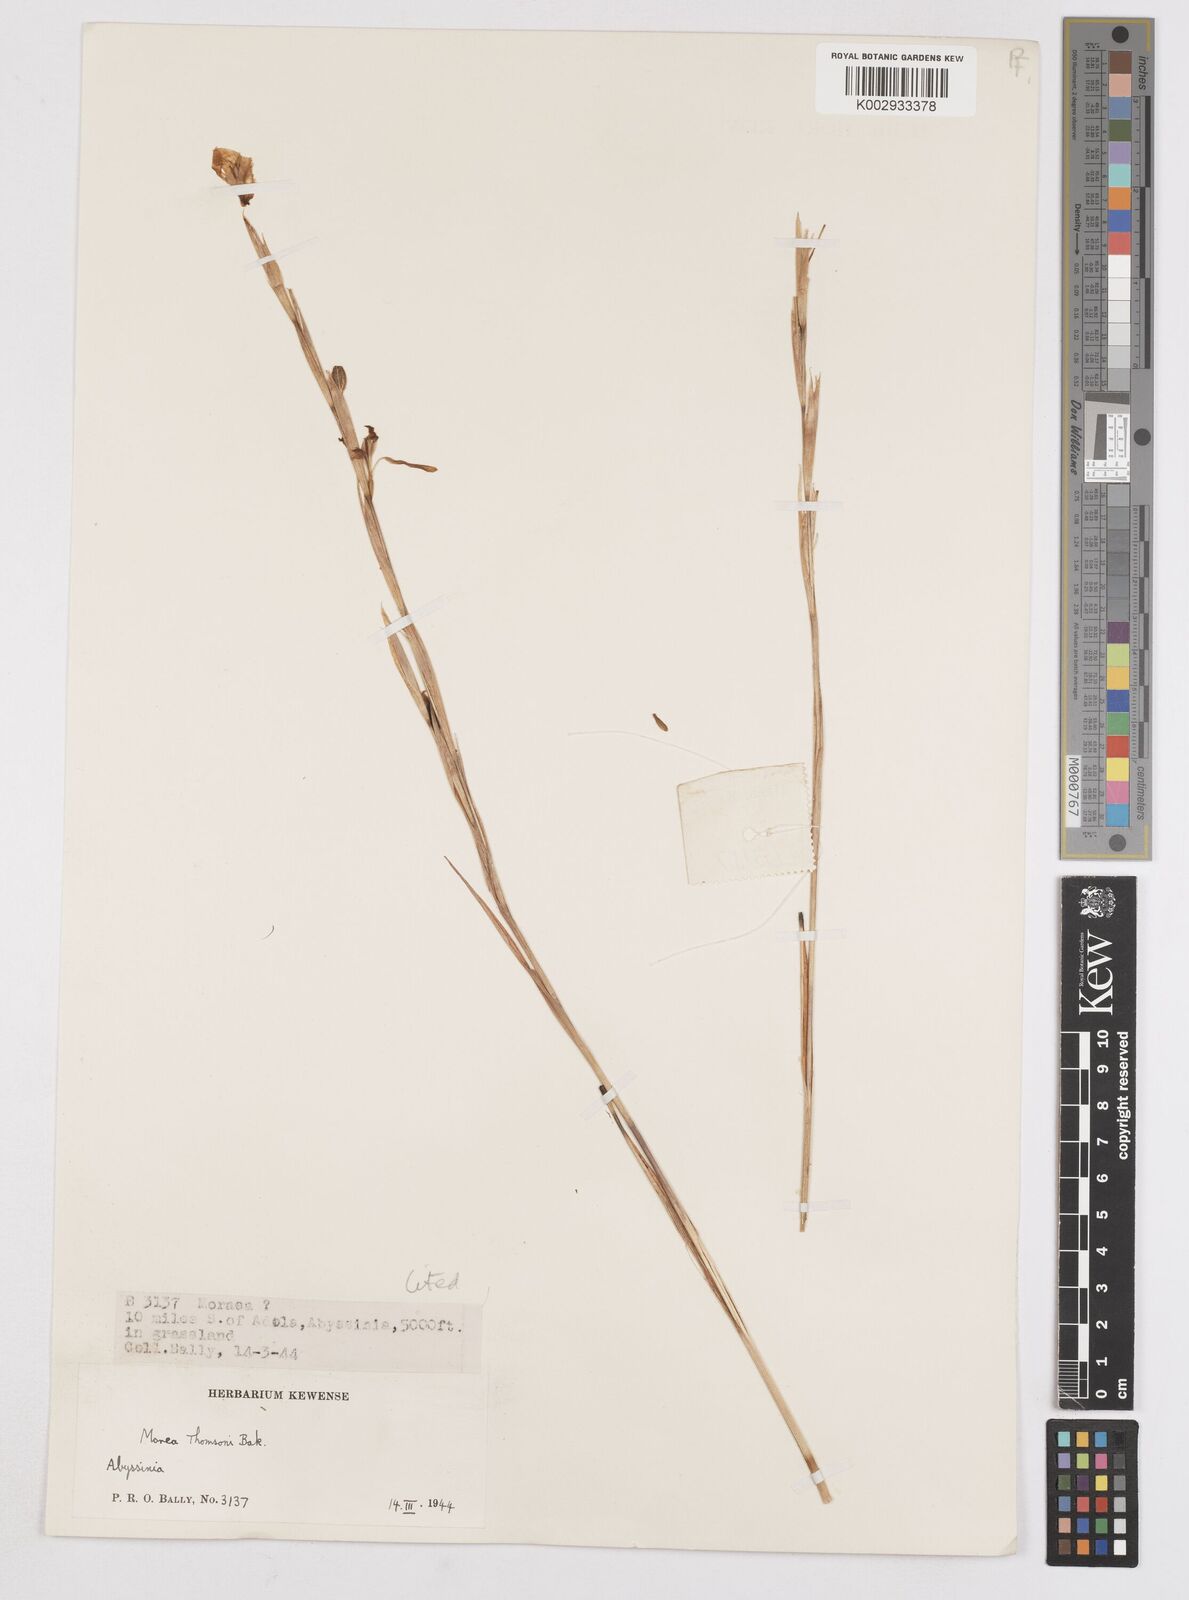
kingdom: Plantae
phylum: Tracheophyta
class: Liliopsida
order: Asparagales
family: Iridaceae
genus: Moraea
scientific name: Moraea thomsonii
